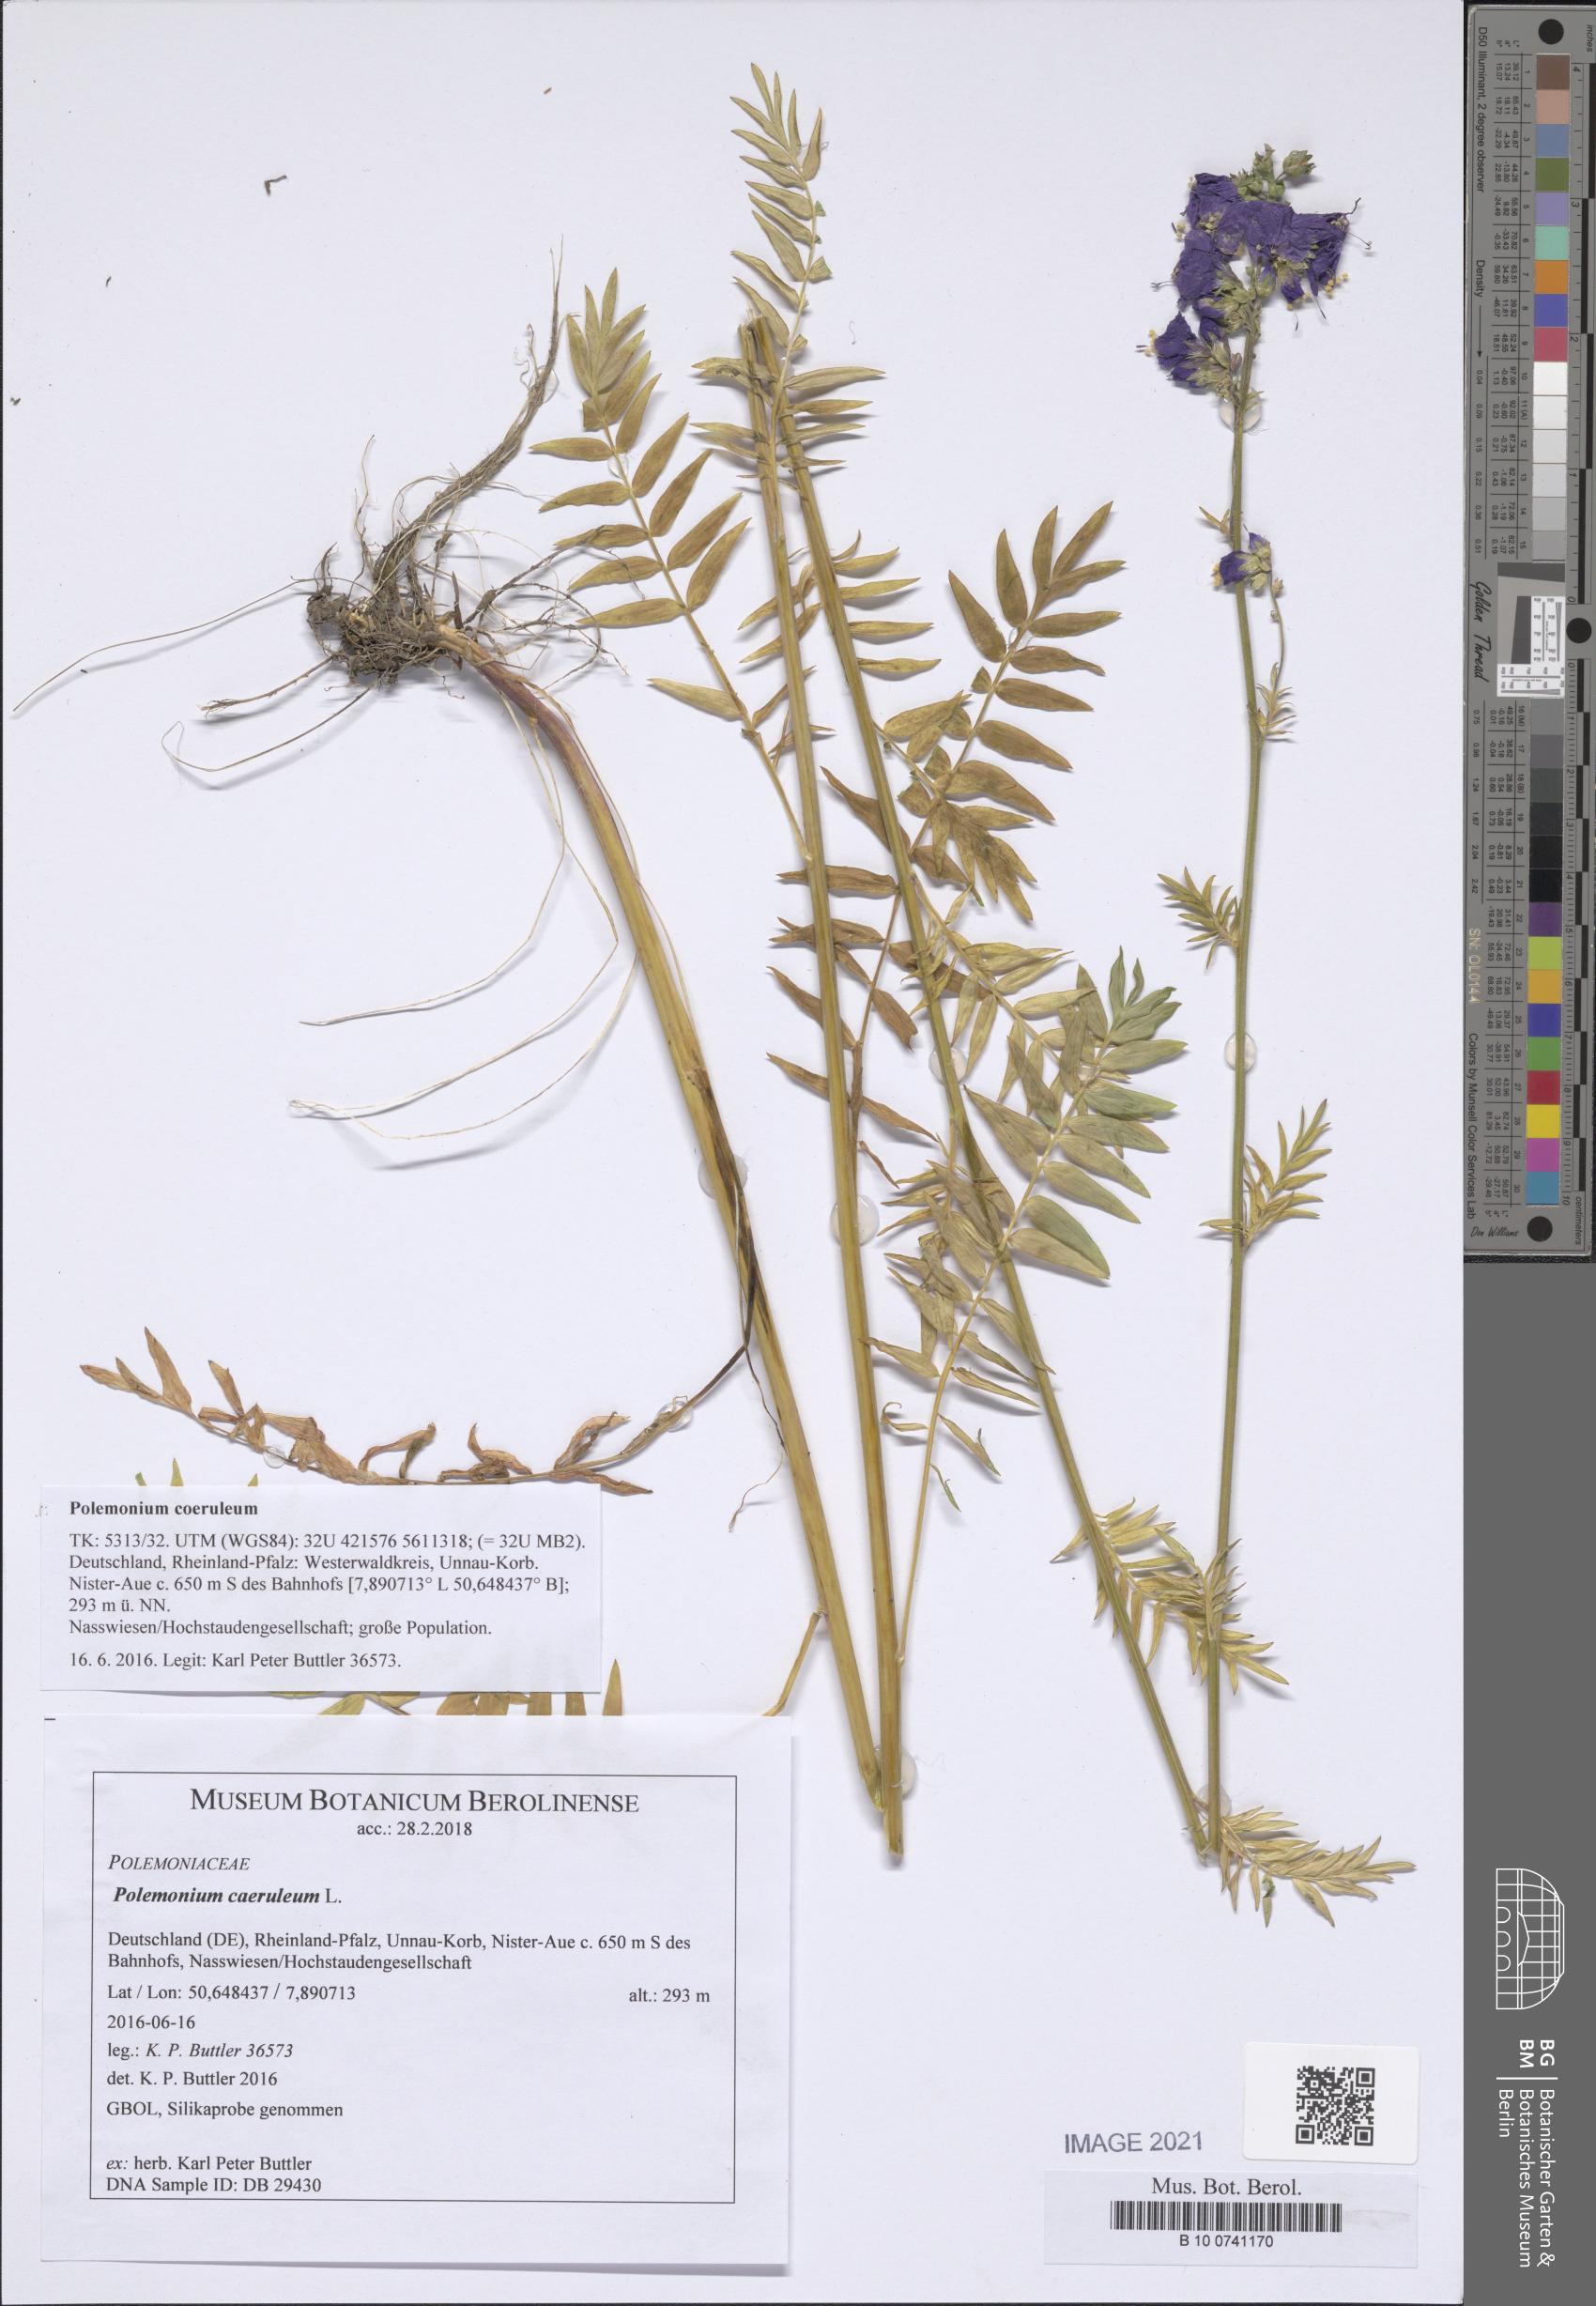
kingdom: Plantae
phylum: Tracheophyta
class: Magnoliopsida
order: Ericales
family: Polemoniaceae
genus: Polemonium
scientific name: Polemonium caeruleum
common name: Jacob's-ladder
